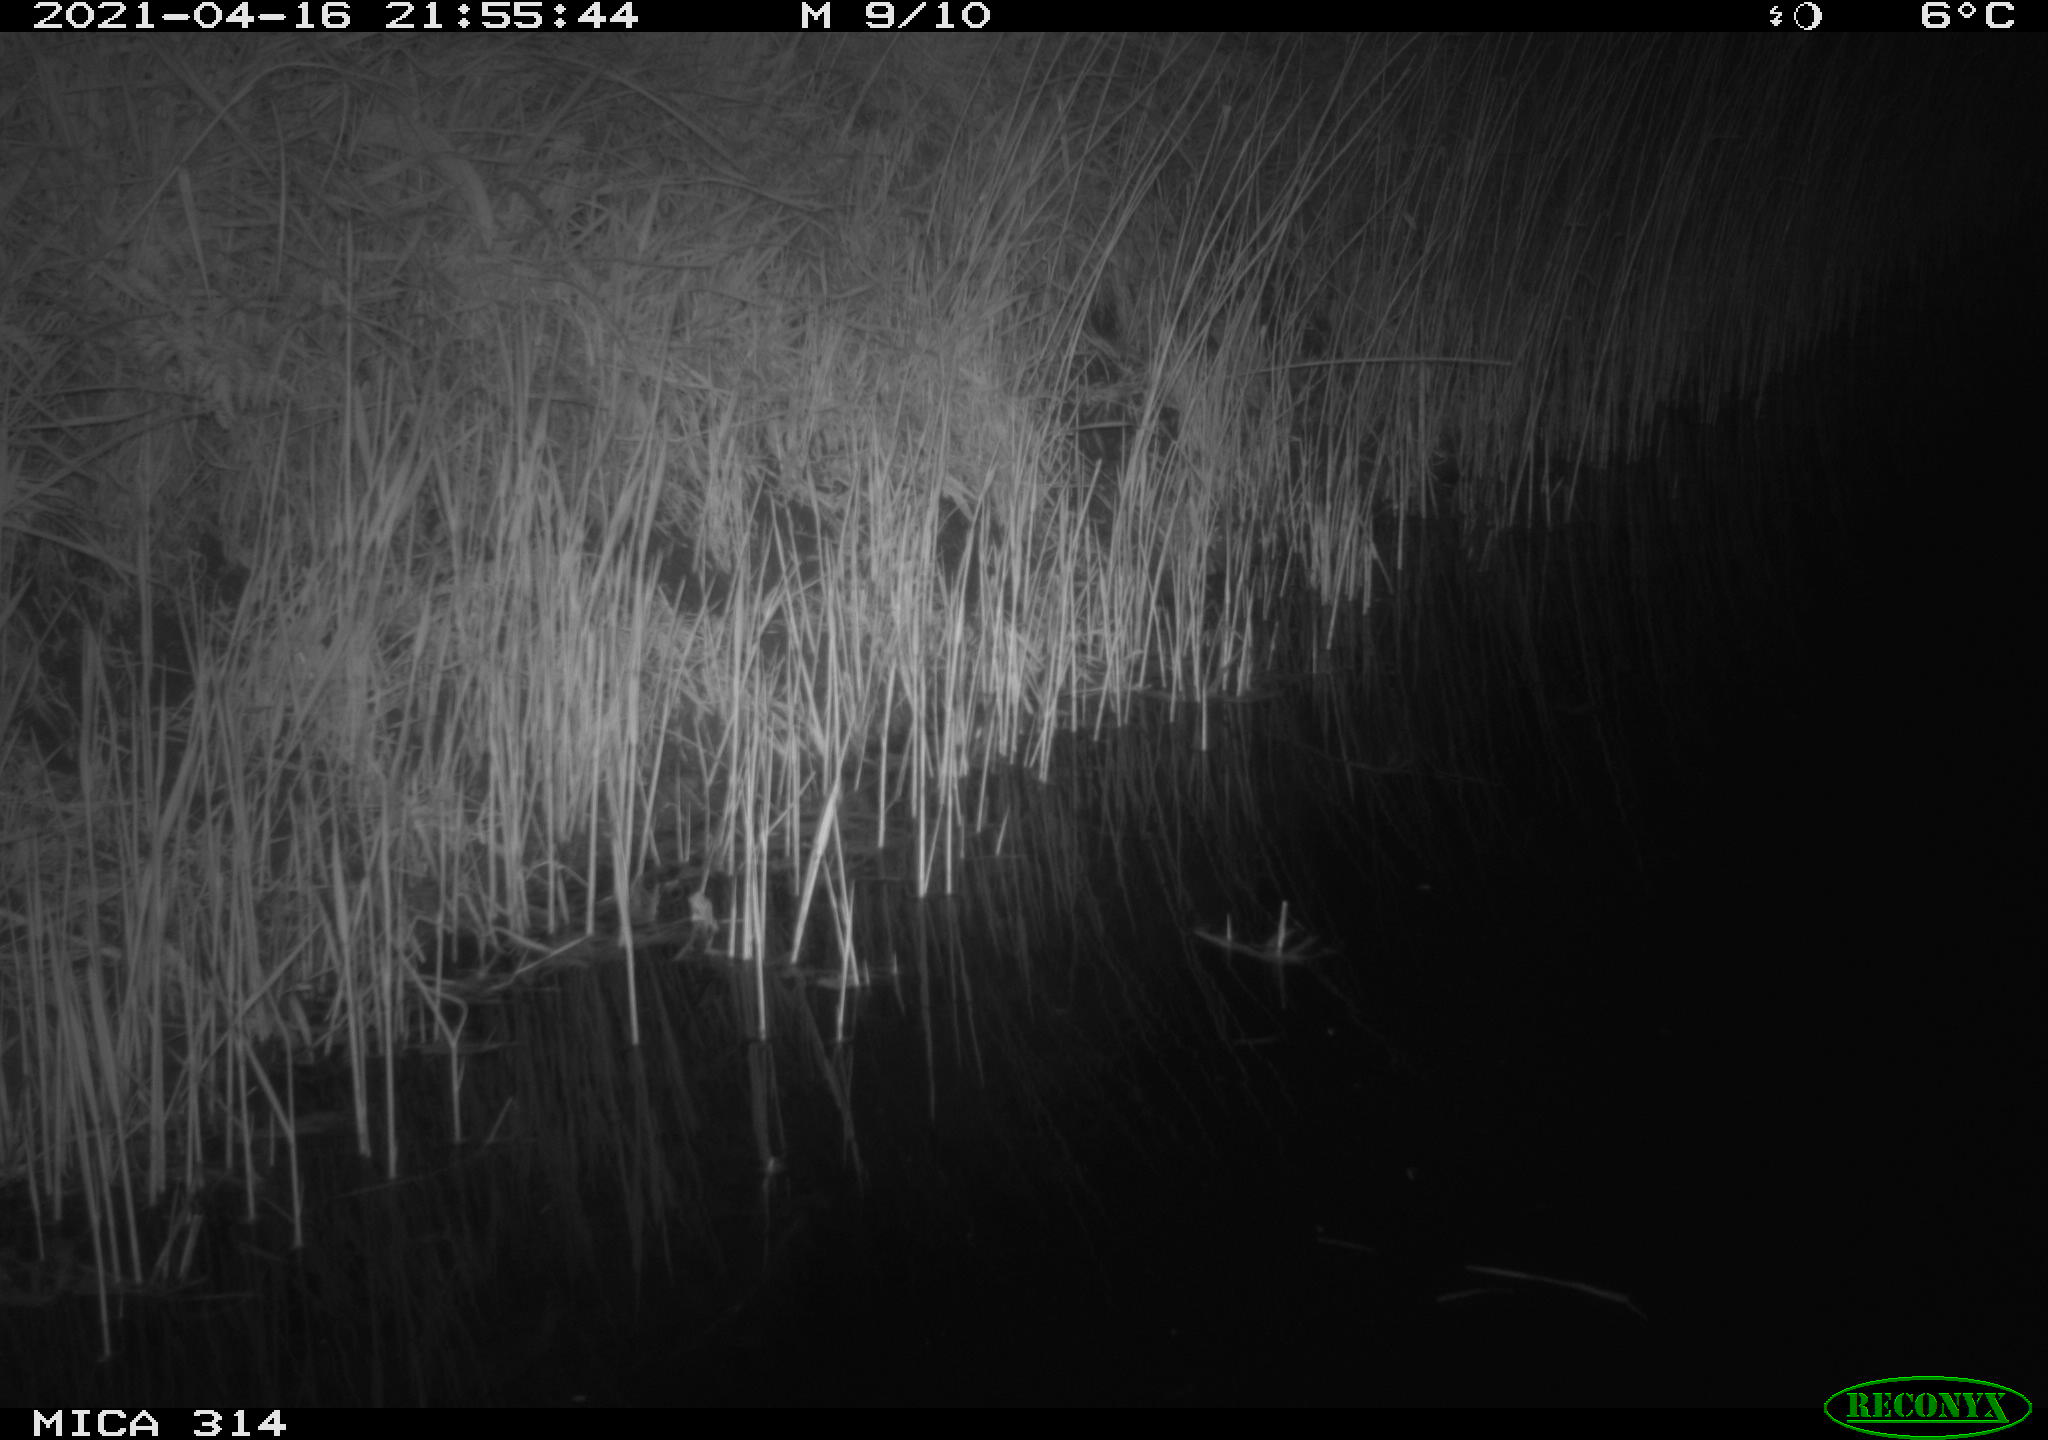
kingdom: Animalia
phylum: Chordata
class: Mammalia
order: Rodentia
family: Muridae
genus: Rattus
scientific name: Rattus norvegicus
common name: Brown rat
